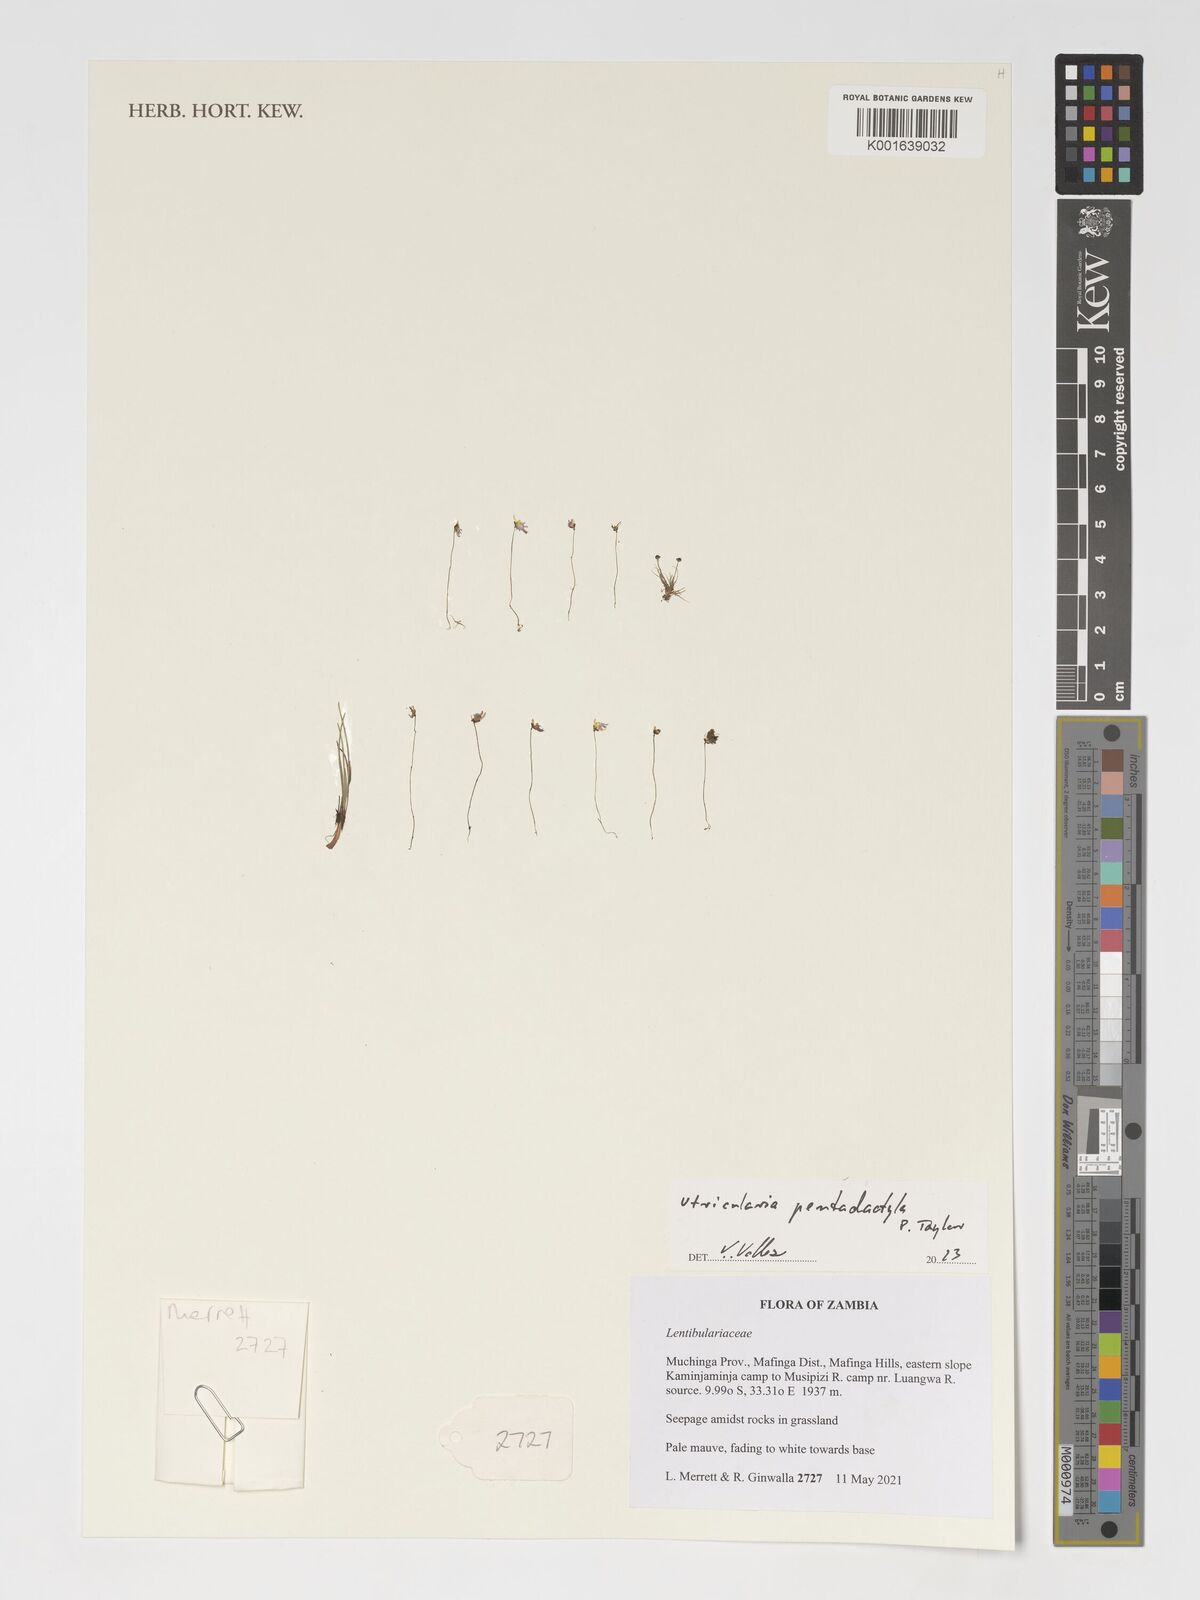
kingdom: Plantae
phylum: Tracheophyta
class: Magnoliopsida
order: Lamiales
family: Lentibulariaceae
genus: Utricularia
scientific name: Utricularia pentadactyla
